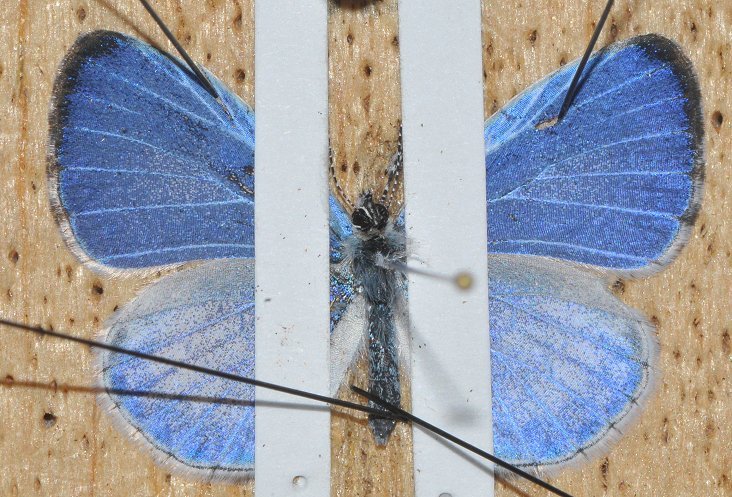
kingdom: Animalia
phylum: Arthropoda
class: Insecta
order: Lepidoptera
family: Lycaenidae
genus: Cyaniris
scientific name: Cyaniris neglecta
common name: Summer Azure
